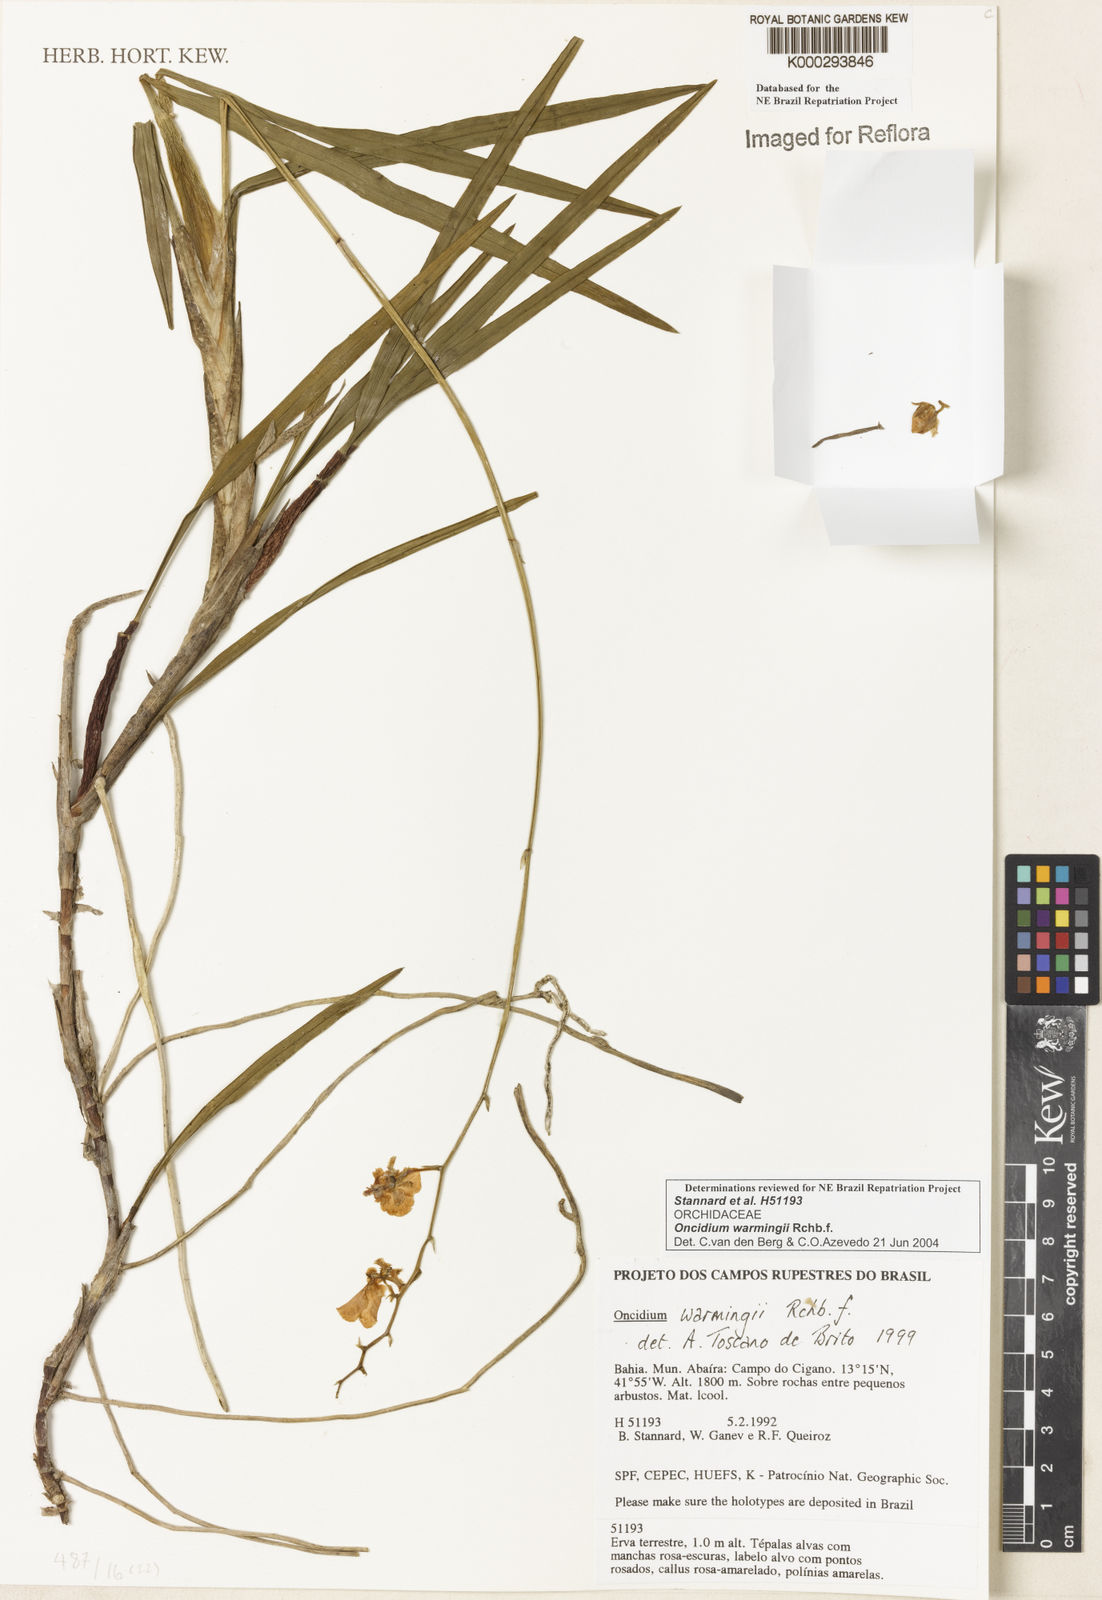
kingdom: Plantae
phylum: Tracheophyta
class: Liliopsida
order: Asparagales
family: Orchidaceae
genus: Gomesa
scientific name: Gomesa warmingii
